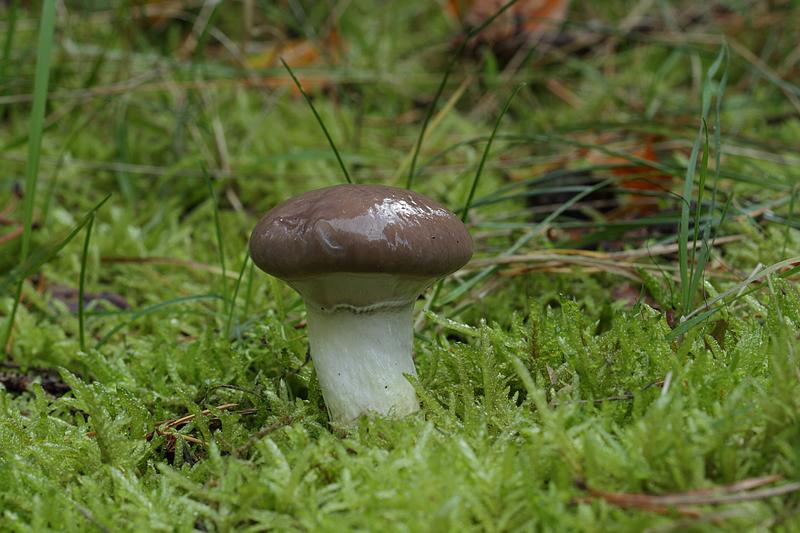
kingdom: Fungi
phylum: Basidiomycota
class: Agaricomycetes
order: Boletales
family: Gomphidiaceae
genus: Gomphidius
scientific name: Gomphidius glutinosus
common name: grå slimslør
